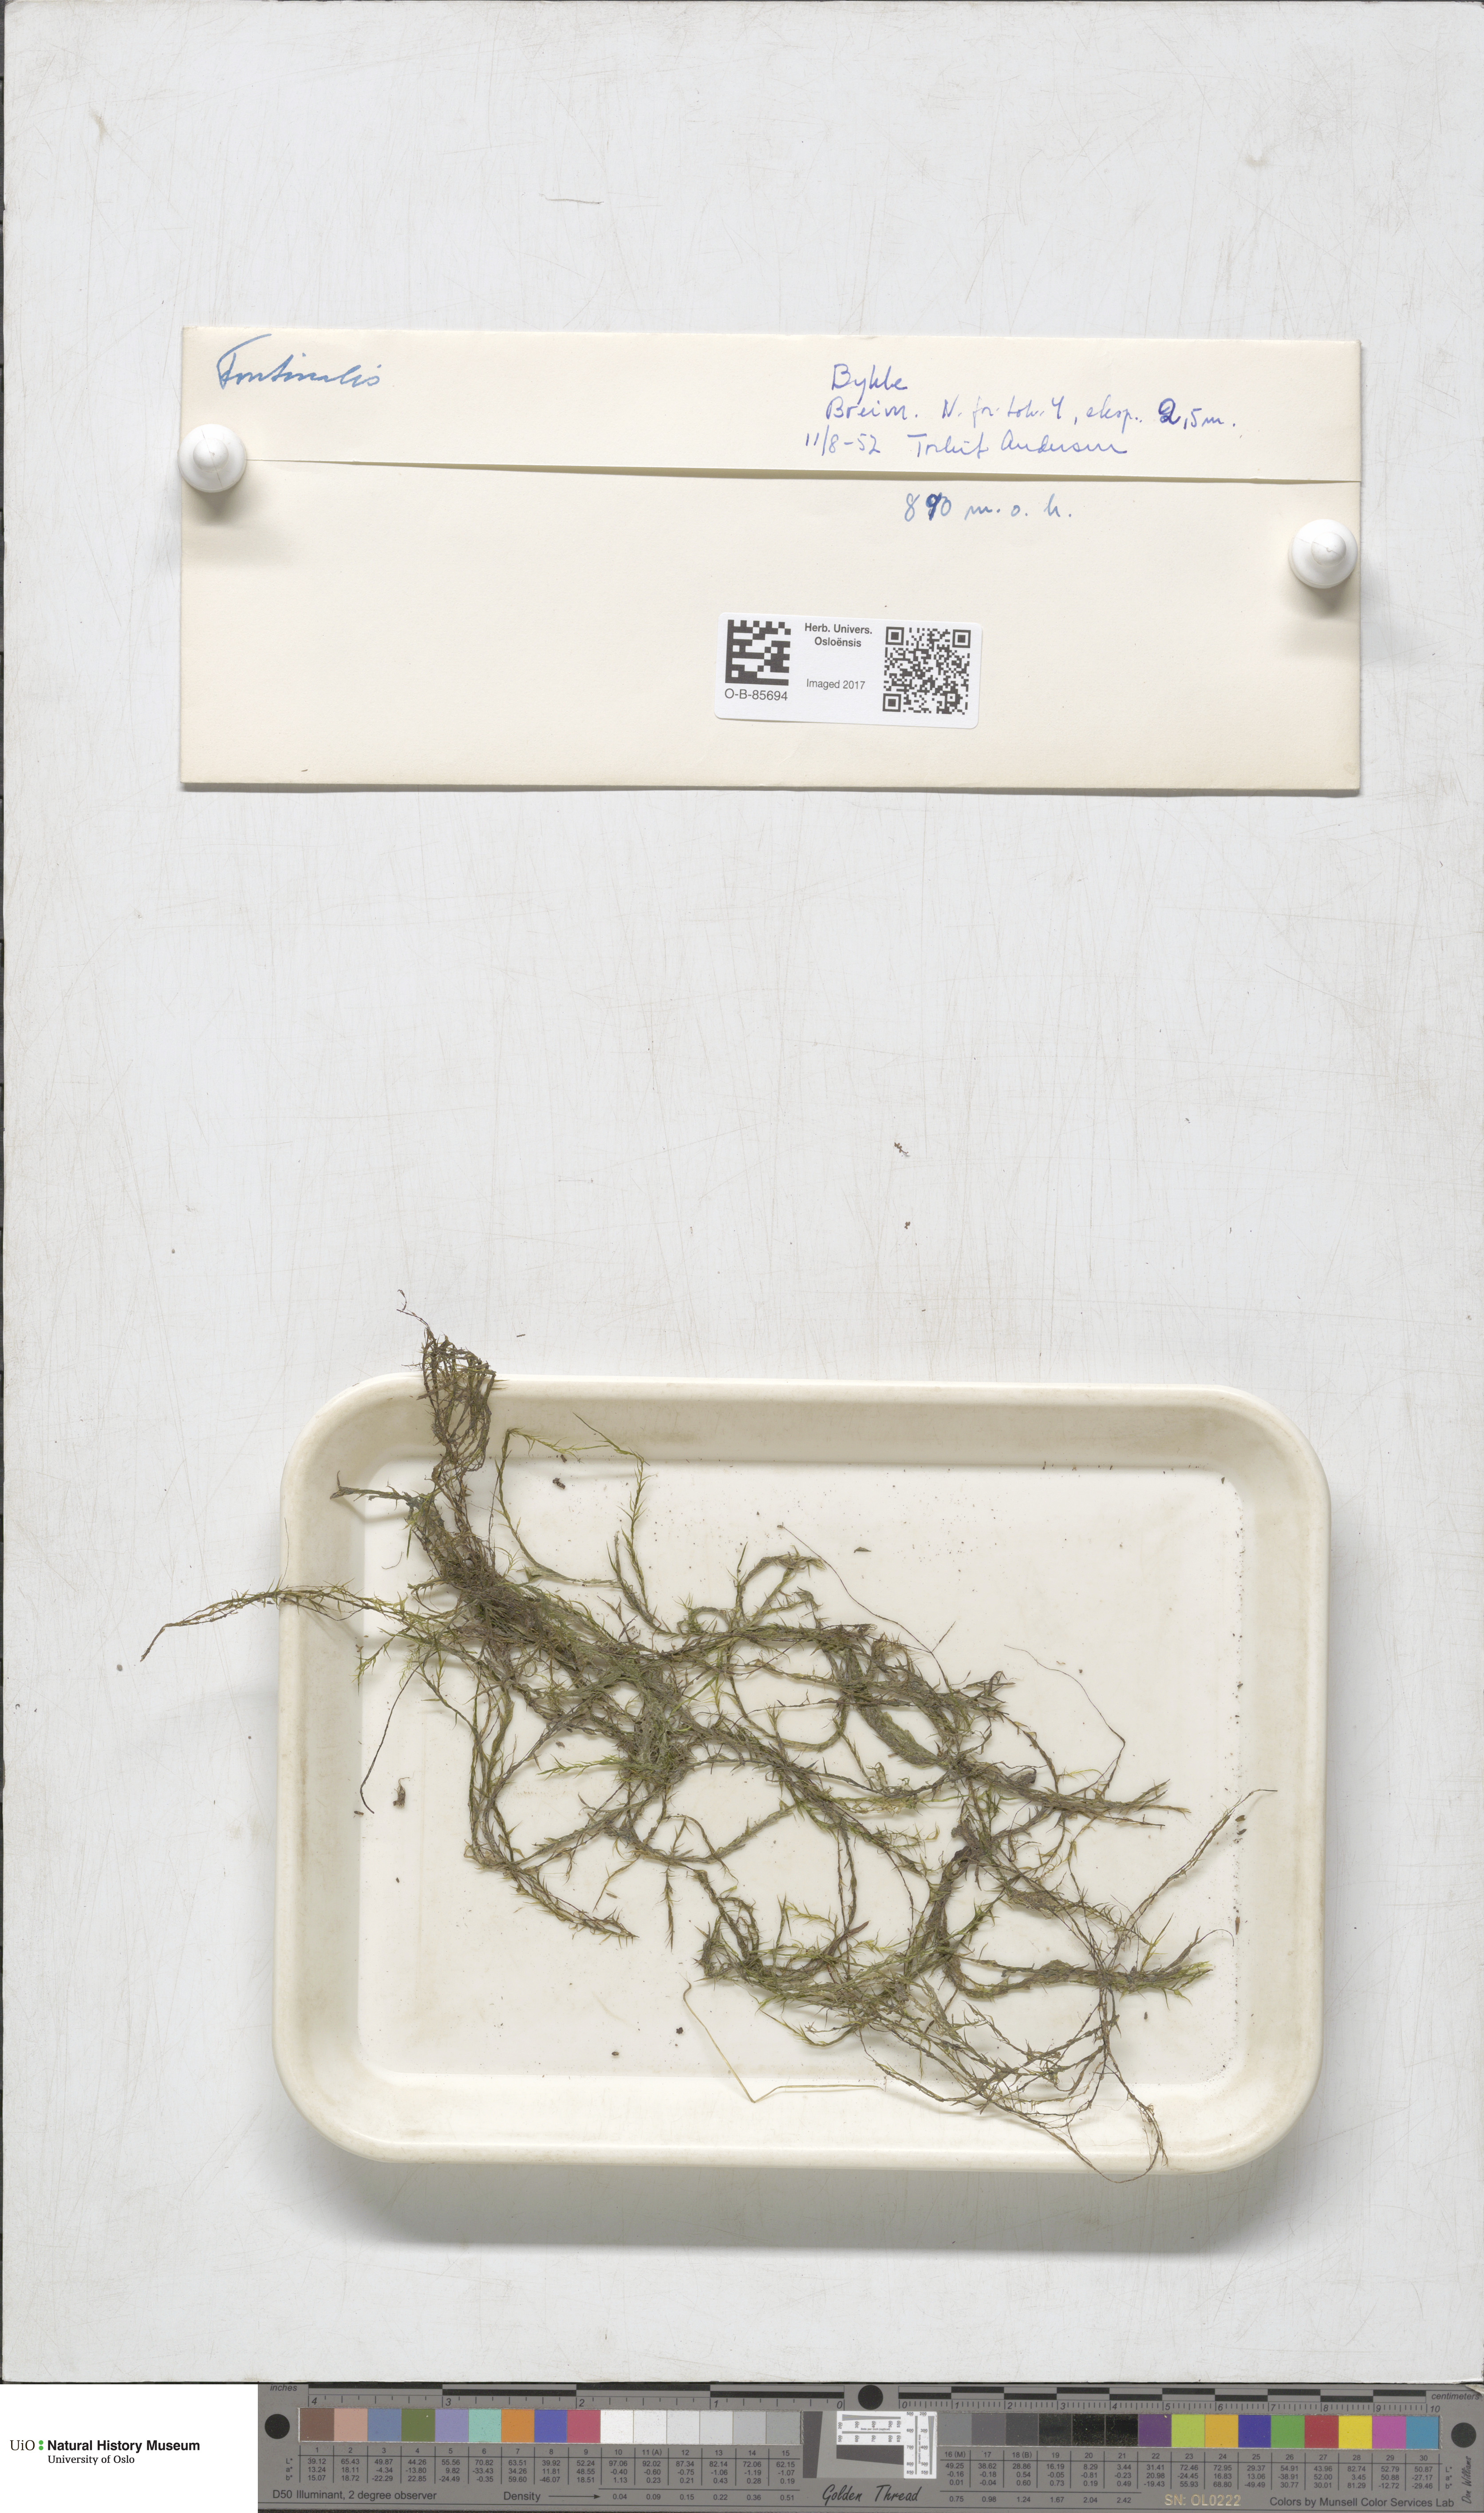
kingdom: Plantae
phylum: Bryophyta
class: Bryopsida
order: Hypnales
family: Fontinalaceae
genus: Fontinalis
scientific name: Fontinalis
